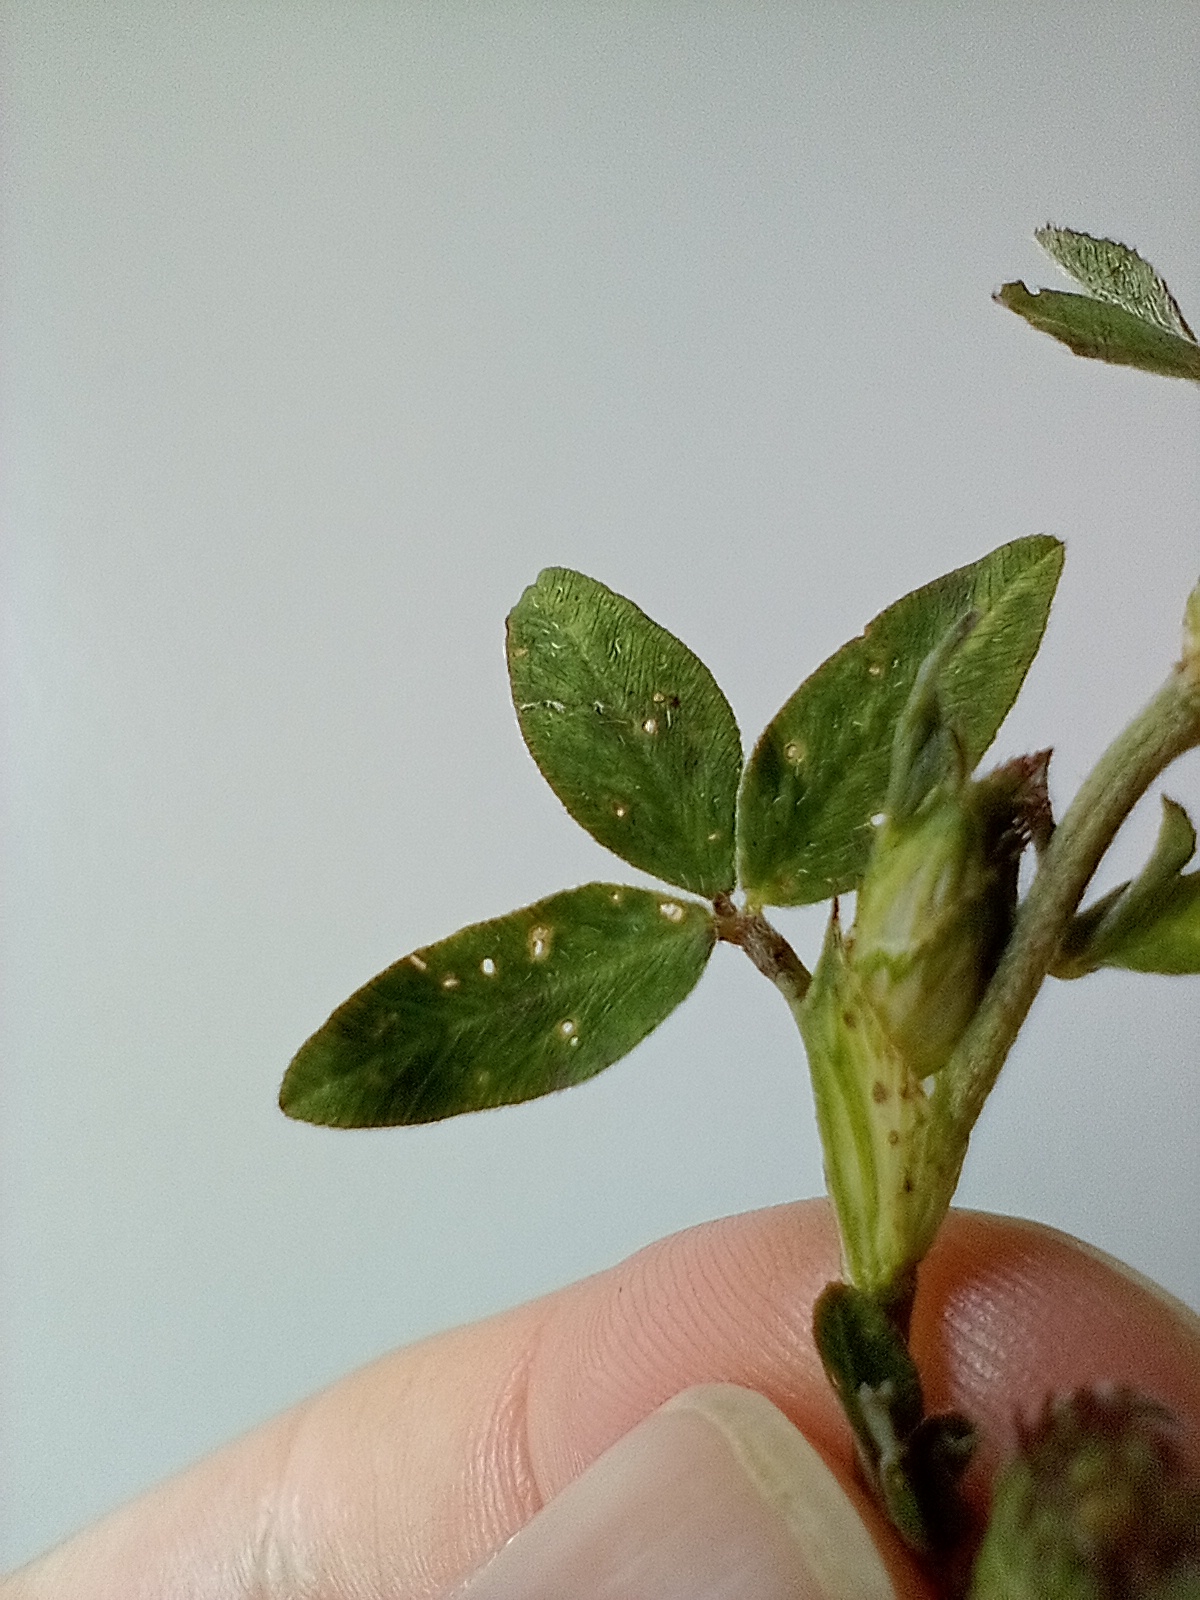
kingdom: Plantae
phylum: Tracheophyta
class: Magnoliopsida
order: Fabales
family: Fabaceae
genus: Trifolium
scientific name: Trifolium pratense
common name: Rød-kløver
